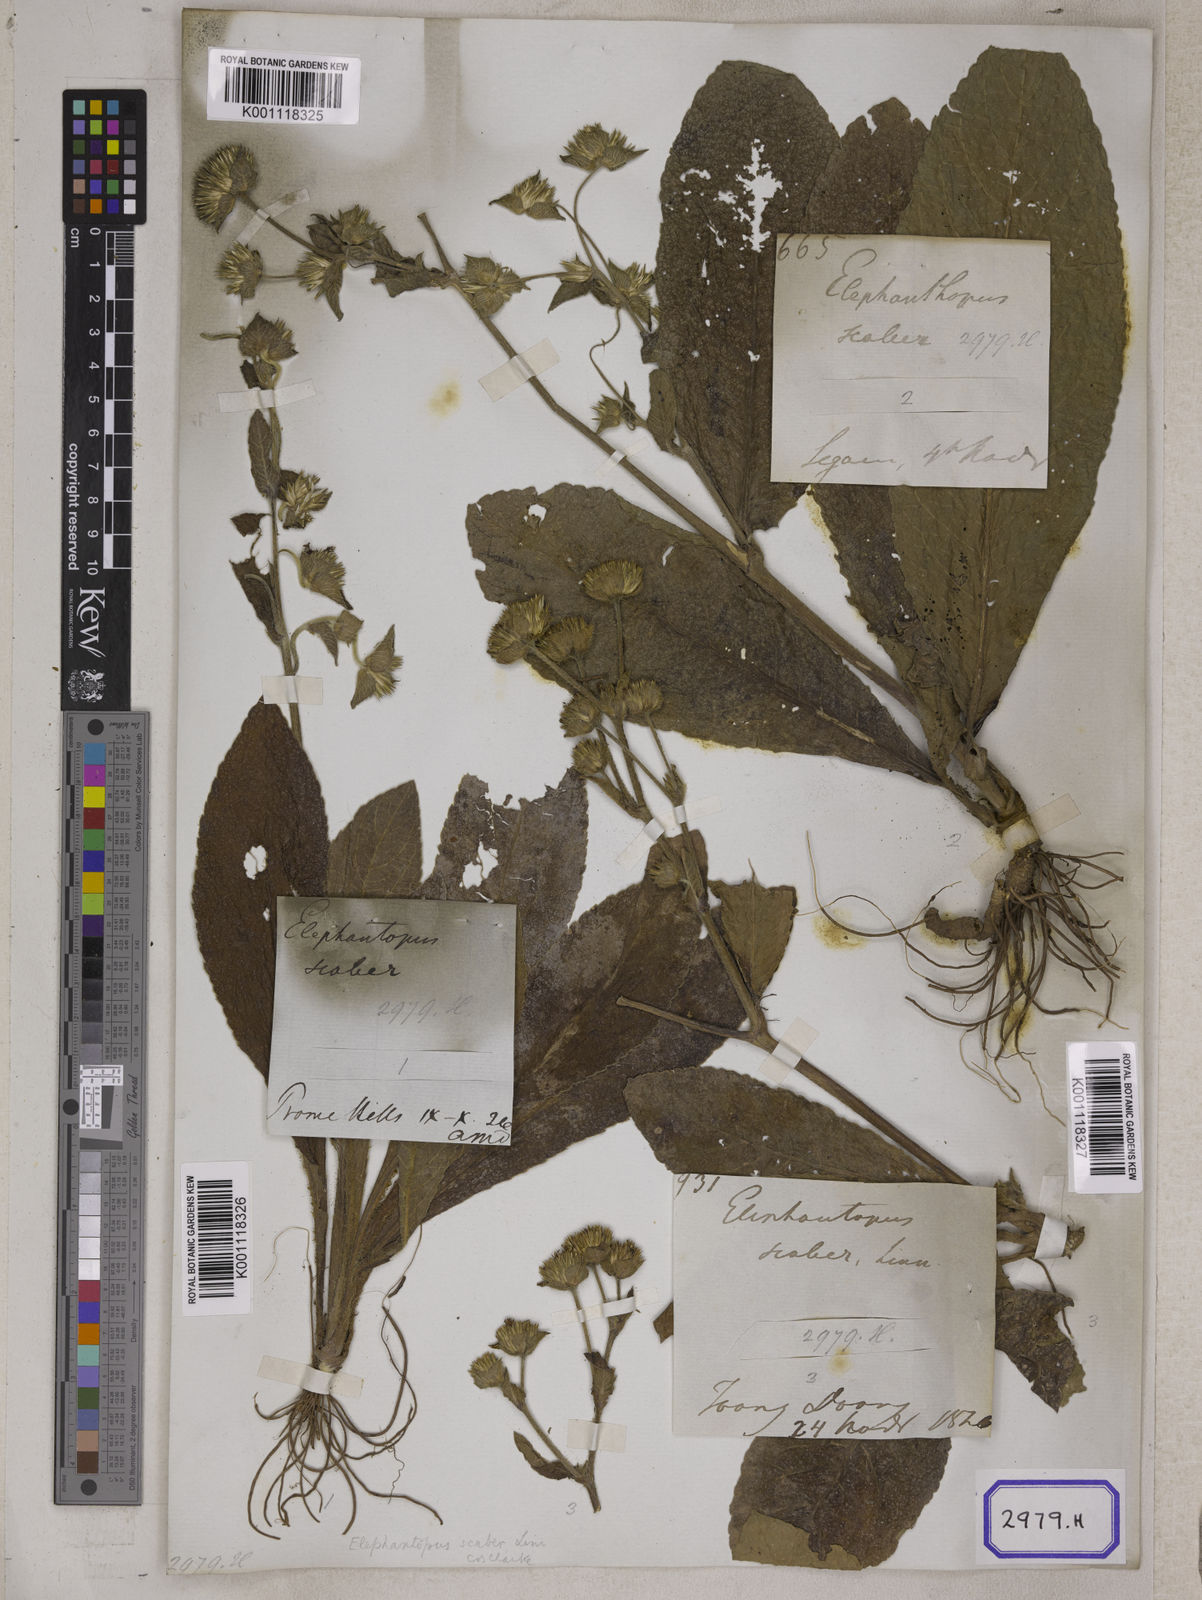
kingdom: Plantae
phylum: Tracheophyta
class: Magnoliopsida
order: Asterales
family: Asteraceae
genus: Elephantopus
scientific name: Elephantopus scaber
